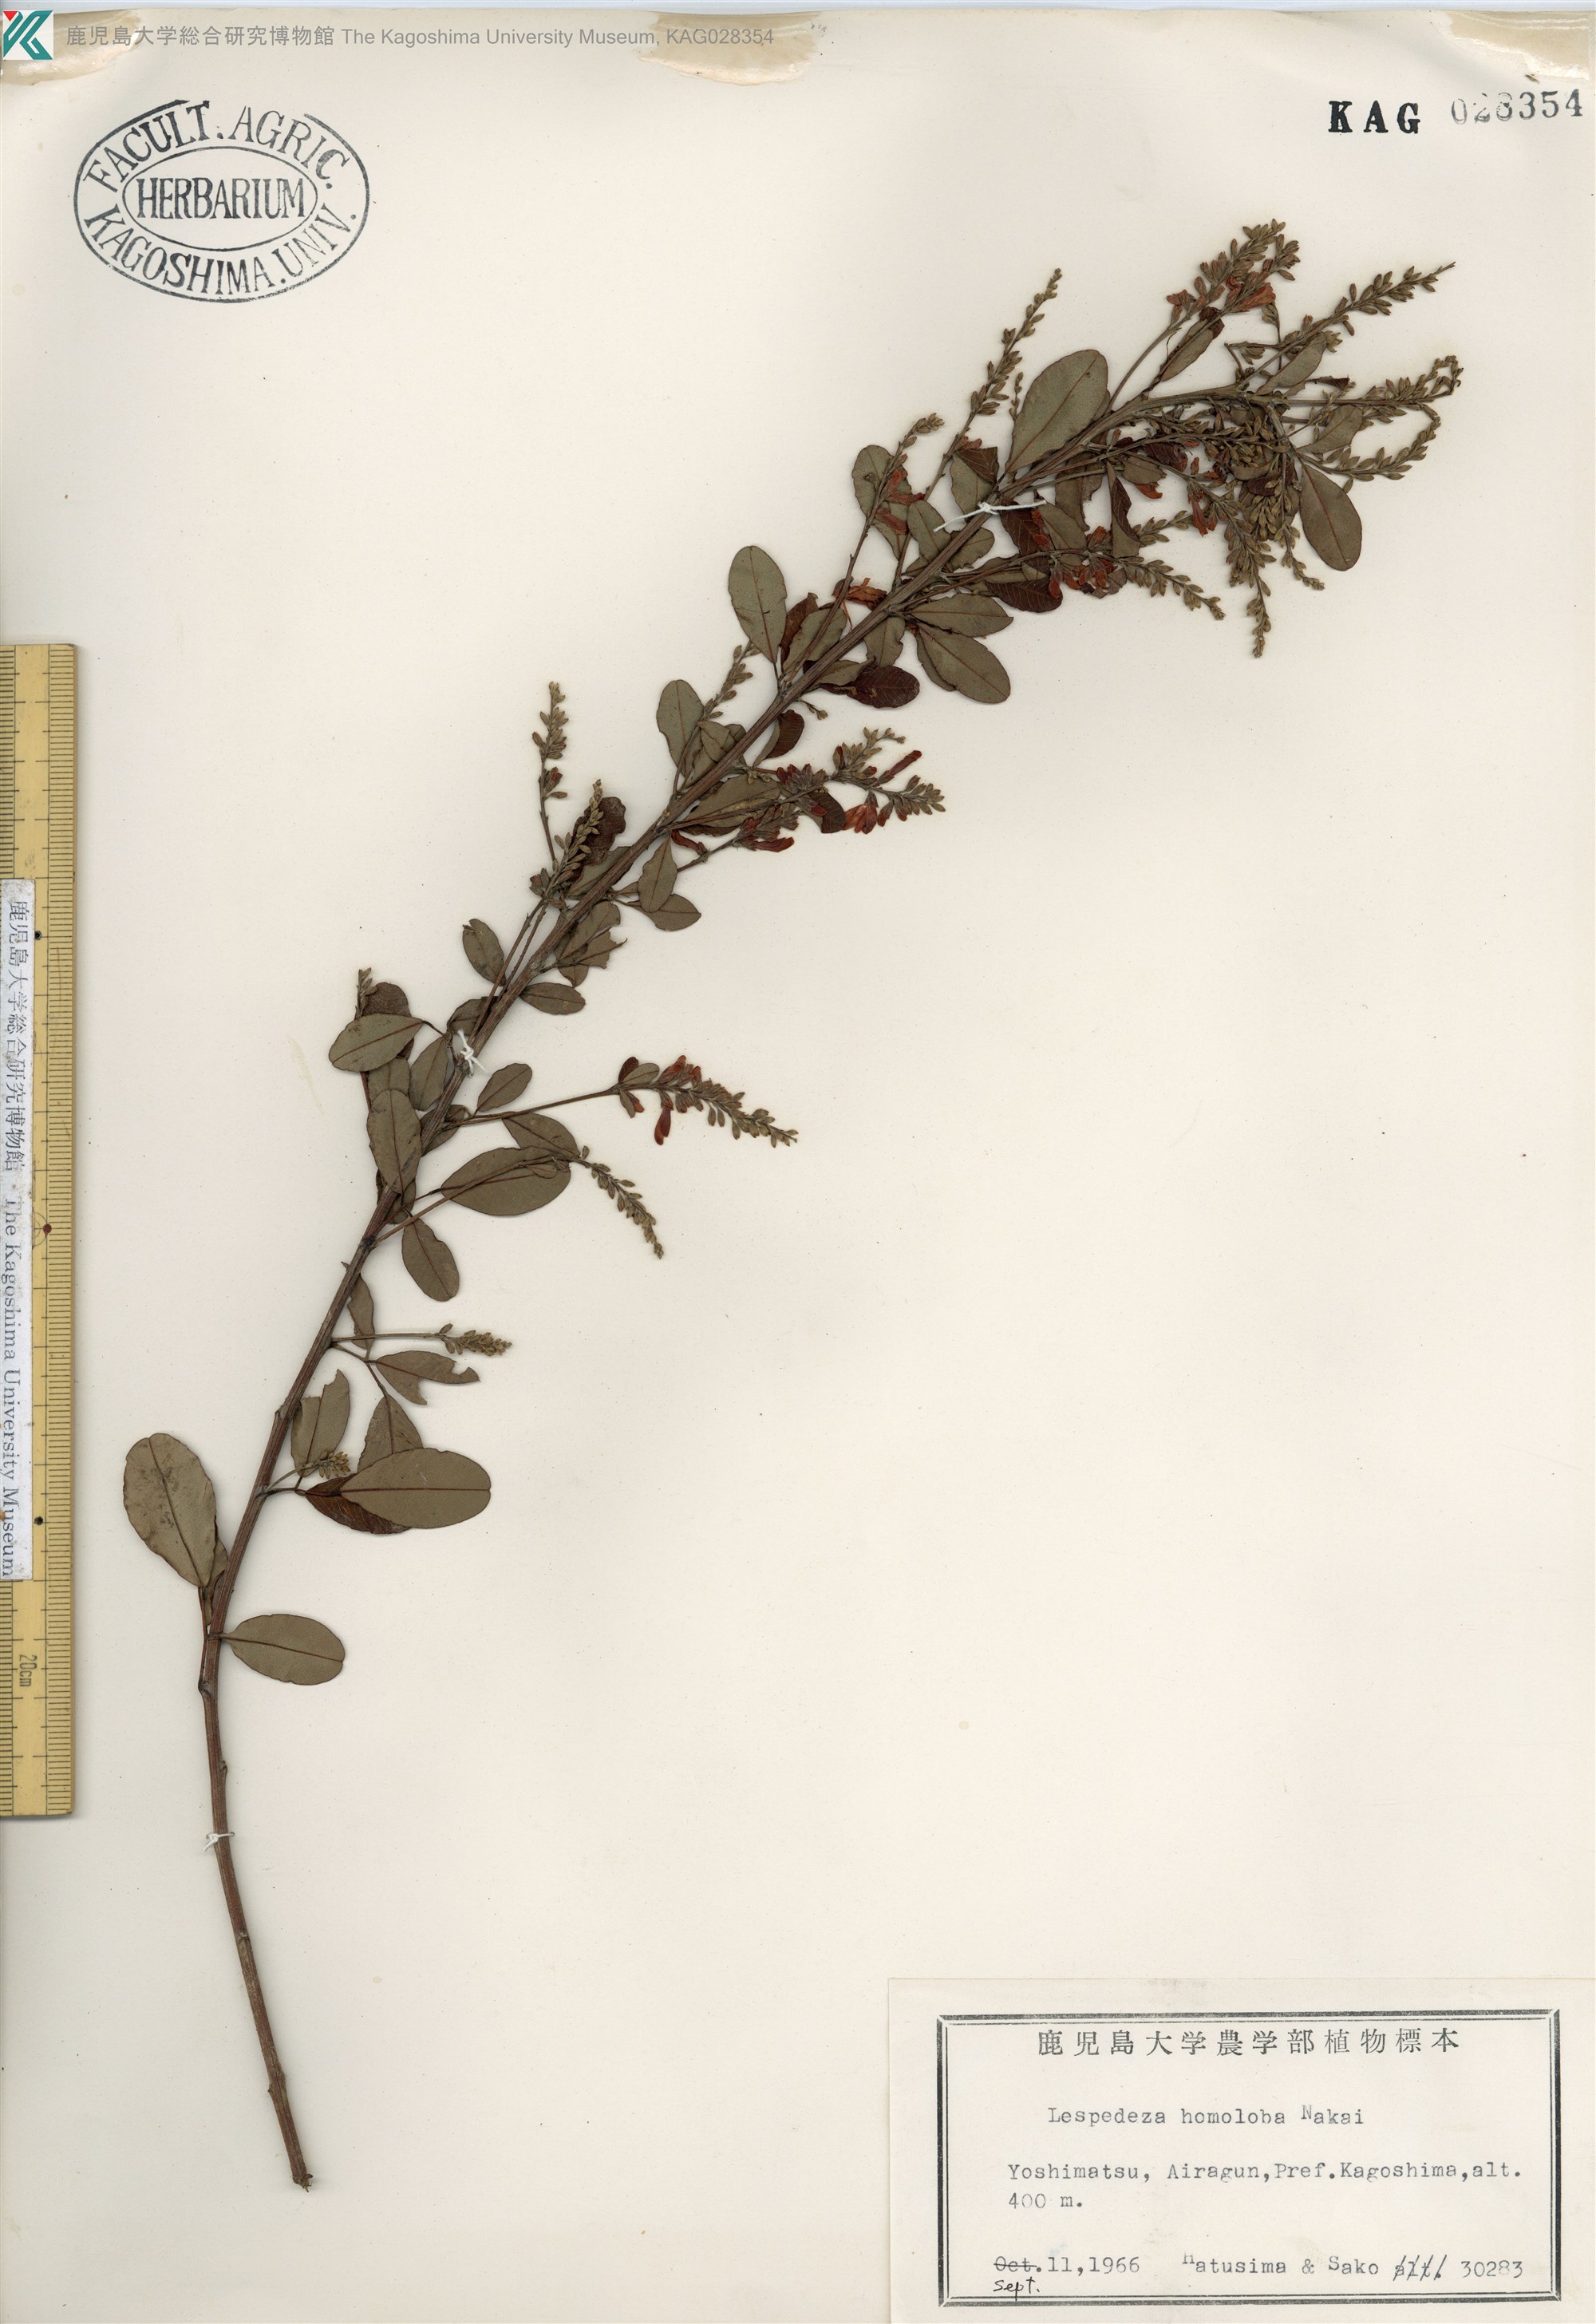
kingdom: Plantae
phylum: Tracheophyta
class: Magnoliopsida
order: Fabales
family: Fabaceae
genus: Lespedeza
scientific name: Lespedeza homoloba
